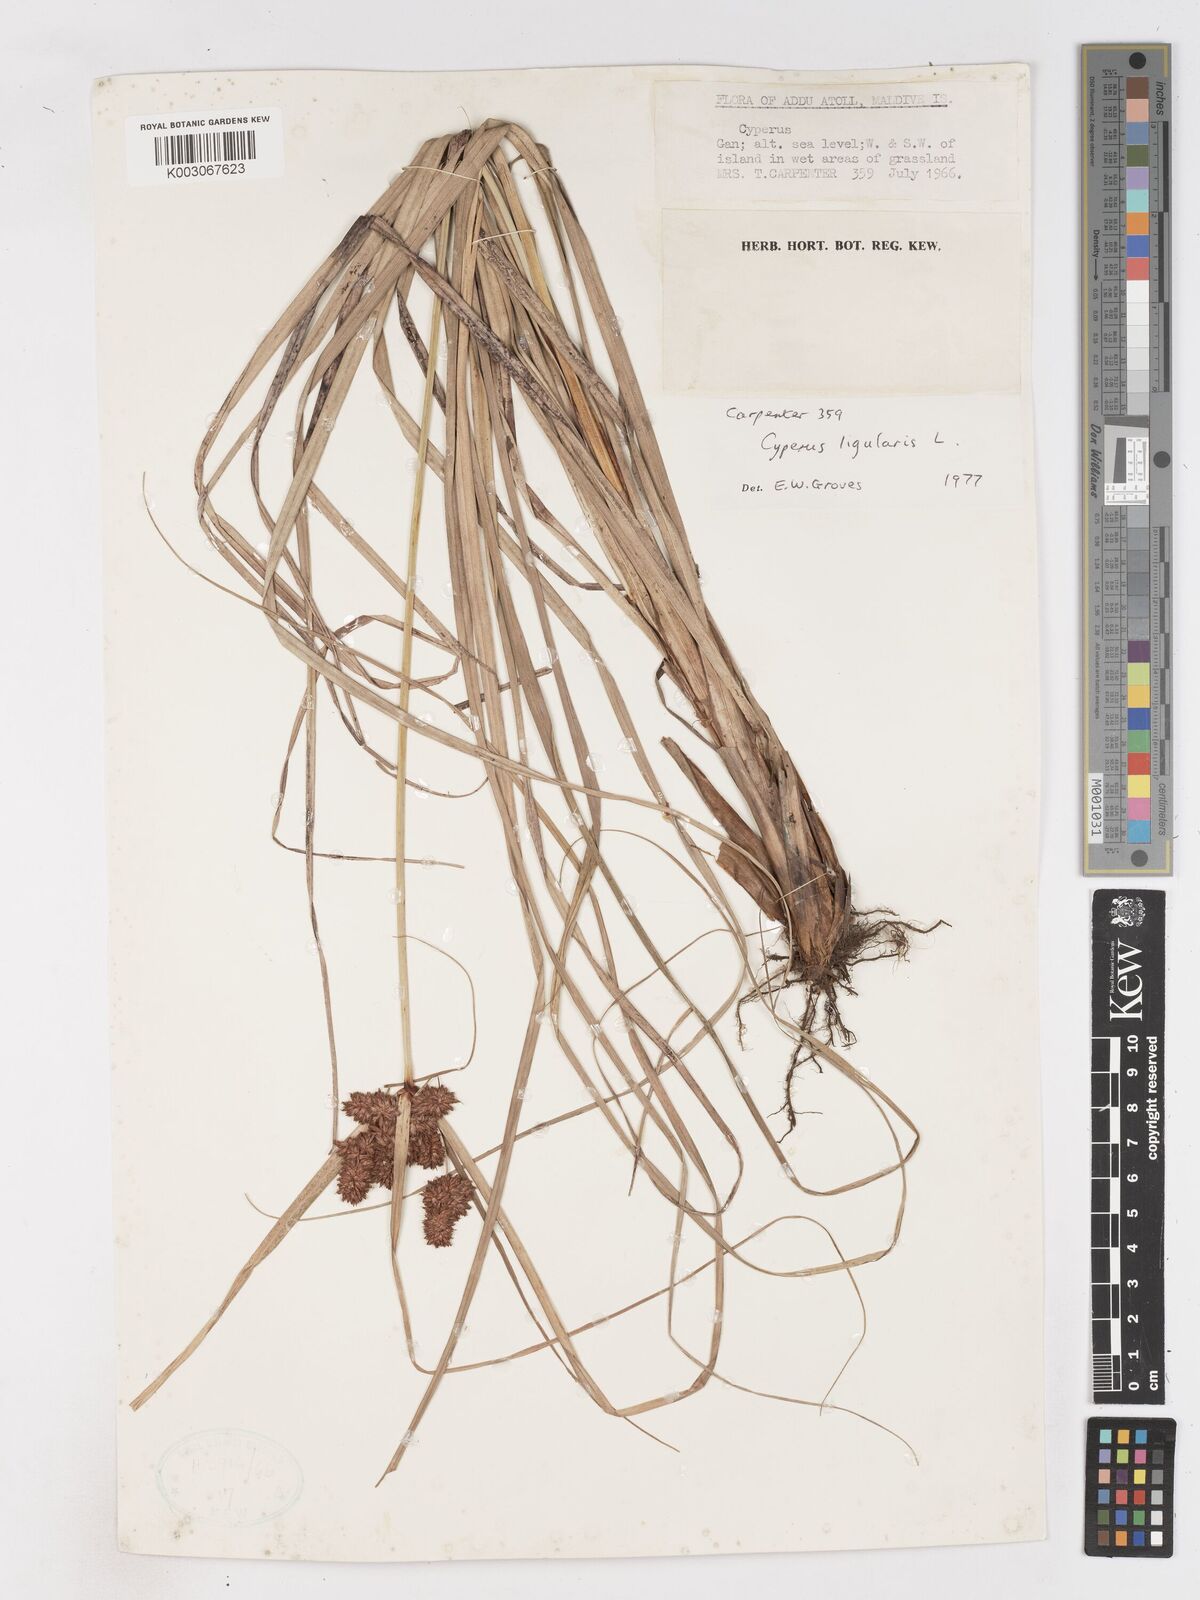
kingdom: Plantae
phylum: Tracheophyta
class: Liliopsida
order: Poales
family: Cyperaceae
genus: Cyperus
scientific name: Cyperus ligularis
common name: Swamp flat sedge
